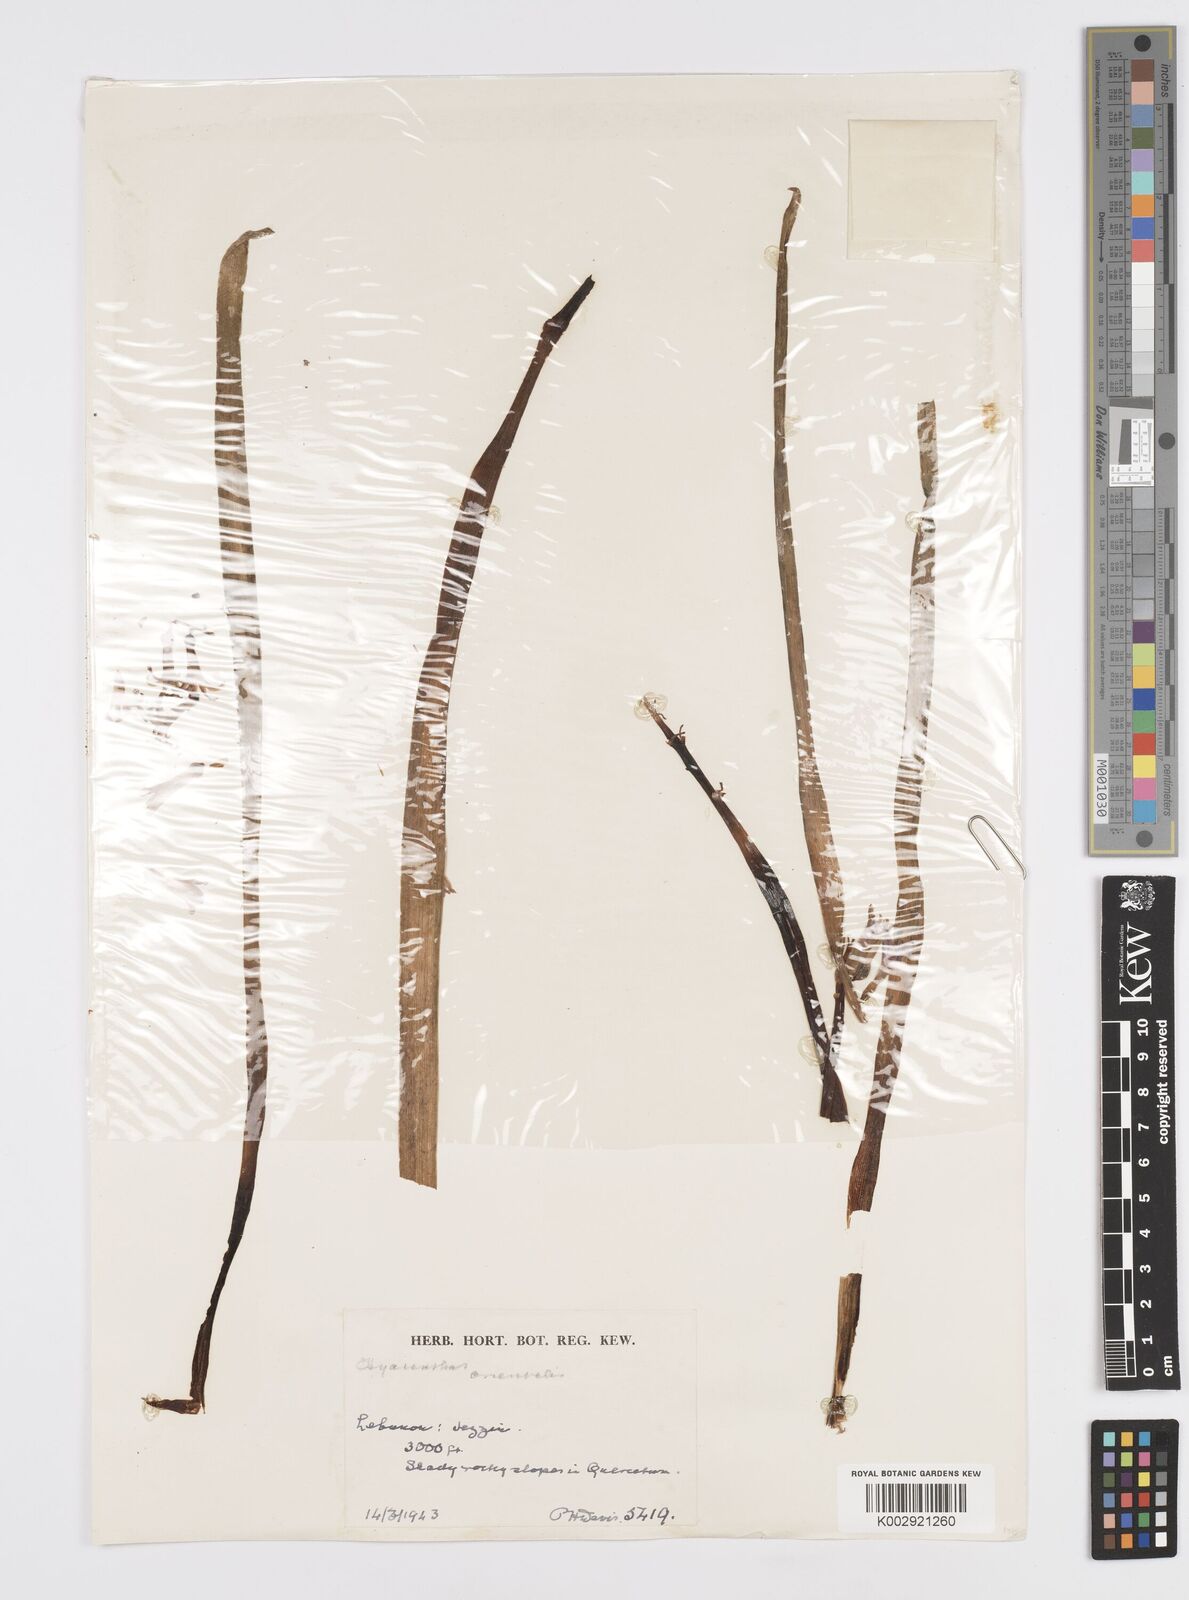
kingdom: Plantae
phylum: Tracheophyta
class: Liliopsida
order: Asparagales
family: Asparagaceae
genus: Hyacinthus
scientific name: Hyacinthus orientalis
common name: Hyacinth
